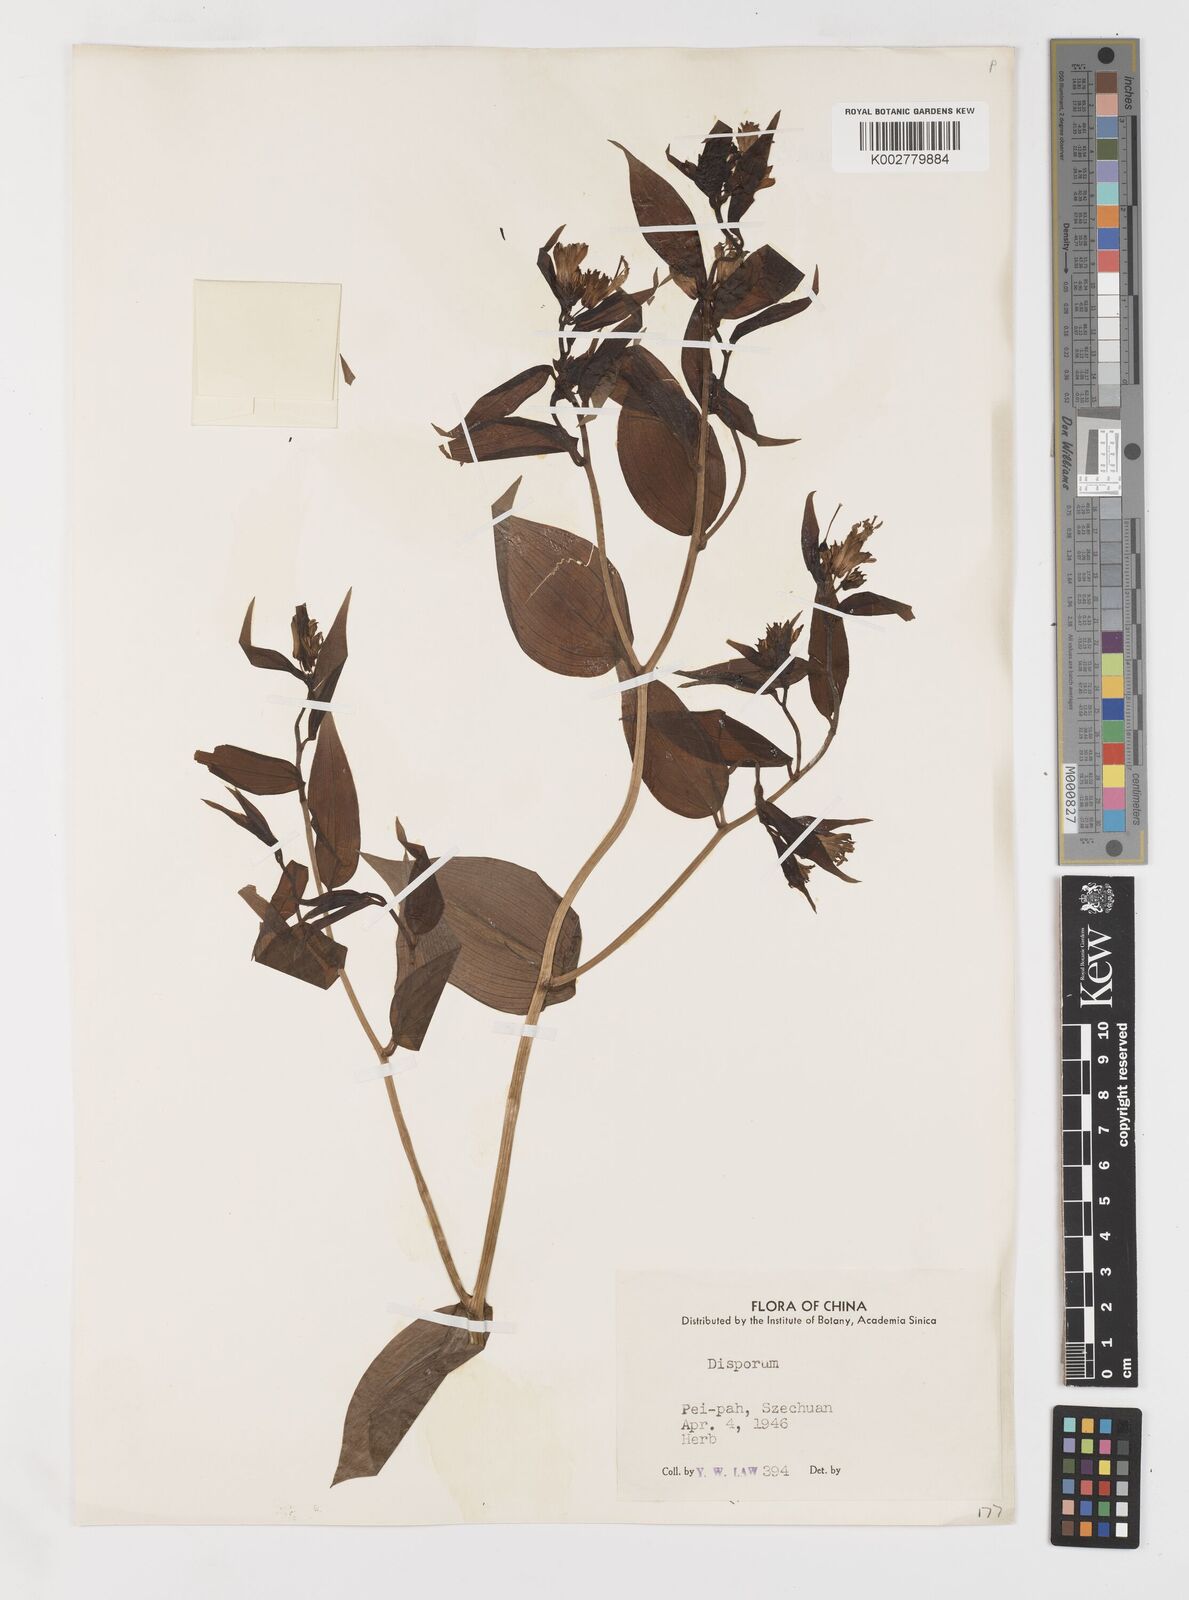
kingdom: Plantae
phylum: Tracheophyta
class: Liliopsida
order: Liliales
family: Colchicaceae
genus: Disporum
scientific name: Disporum
